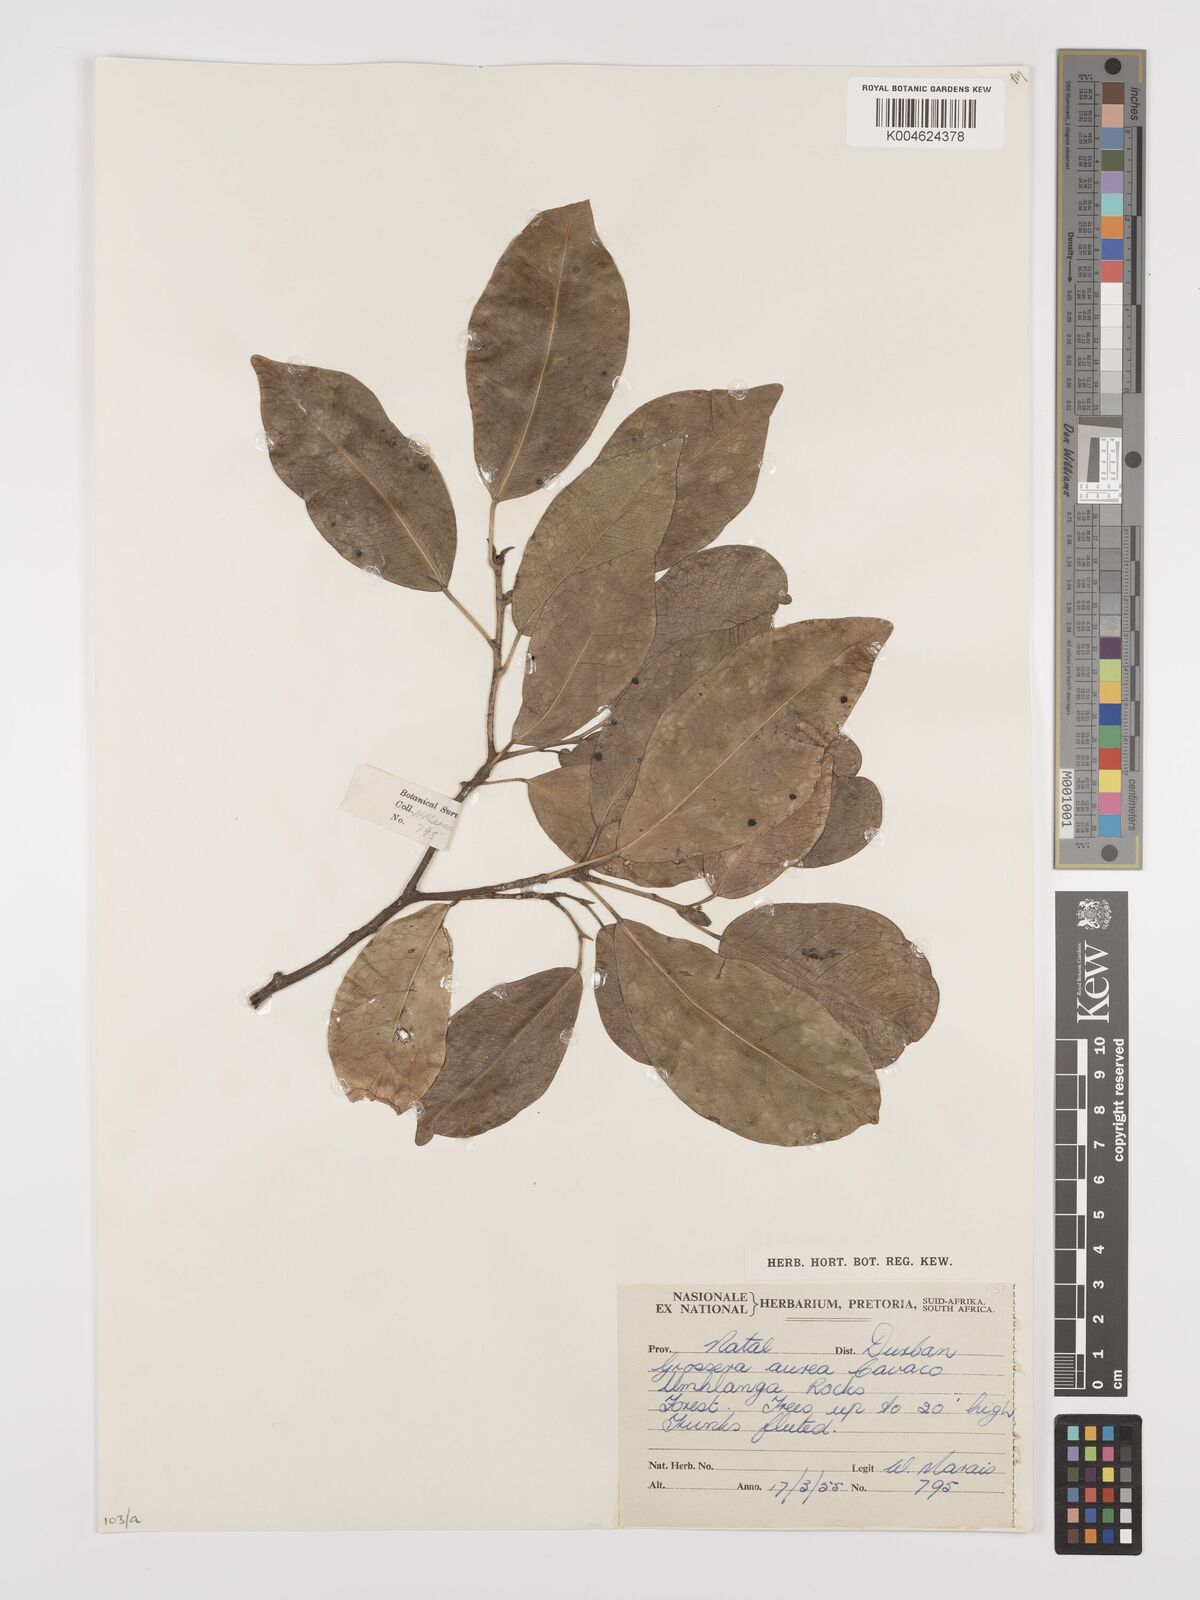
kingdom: Plantae
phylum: Tracheophyta
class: Magnoliopsida
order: Malpighiales
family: Euphorbiaceae
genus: Cavacoa
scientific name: Cavacoa aurea
